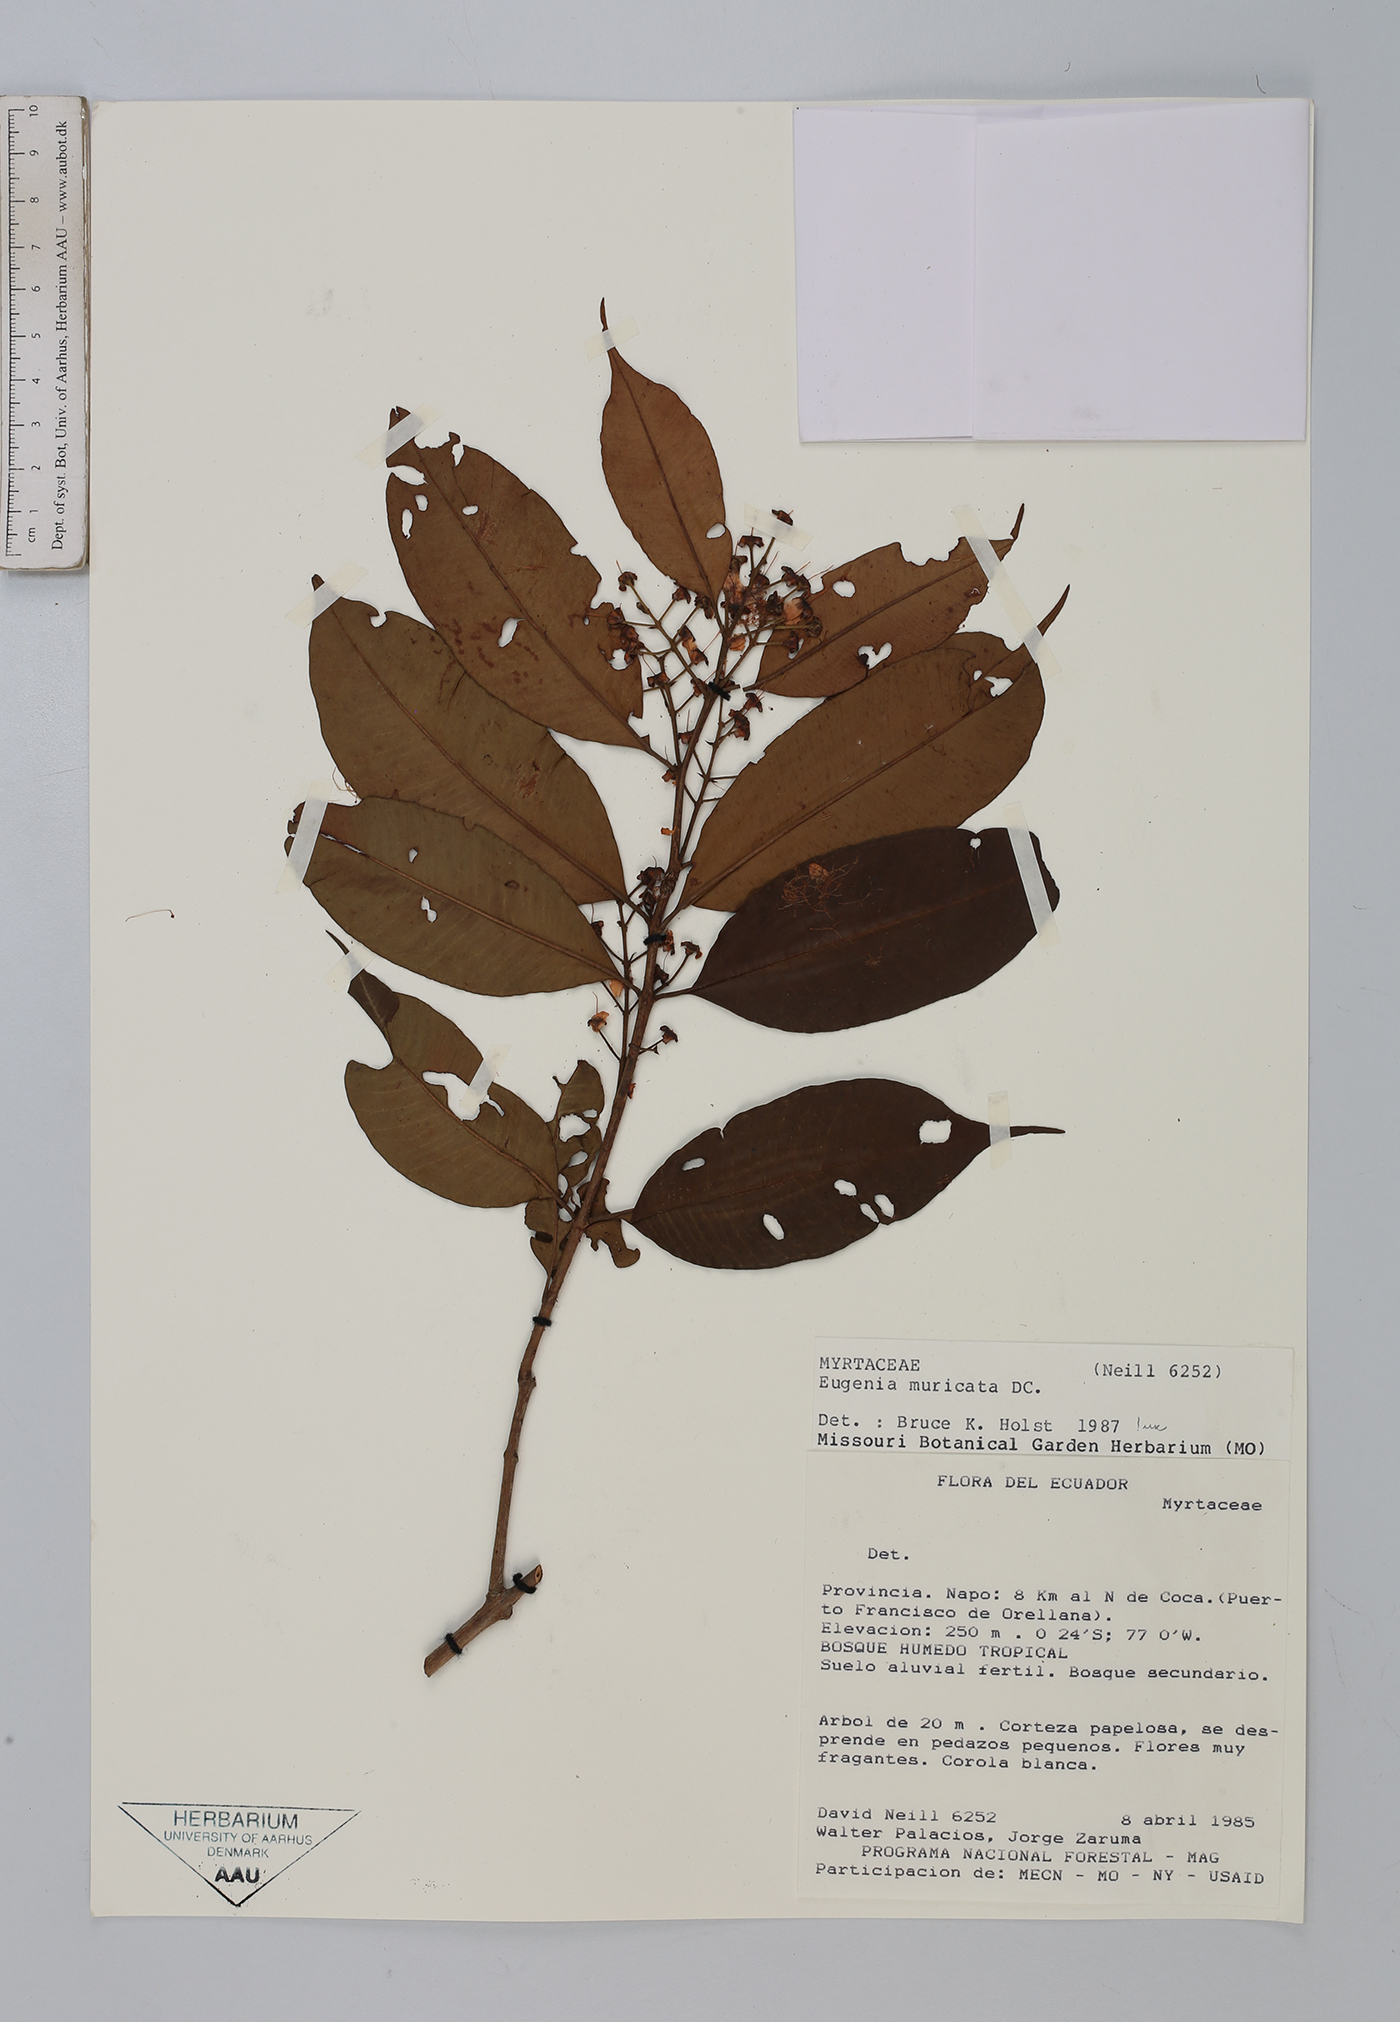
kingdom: Plantae
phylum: Tracheophyta
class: Magnoliopsida
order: Myrtales
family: Myrtaceae
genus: Eugenia
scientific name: Eugenia patens
